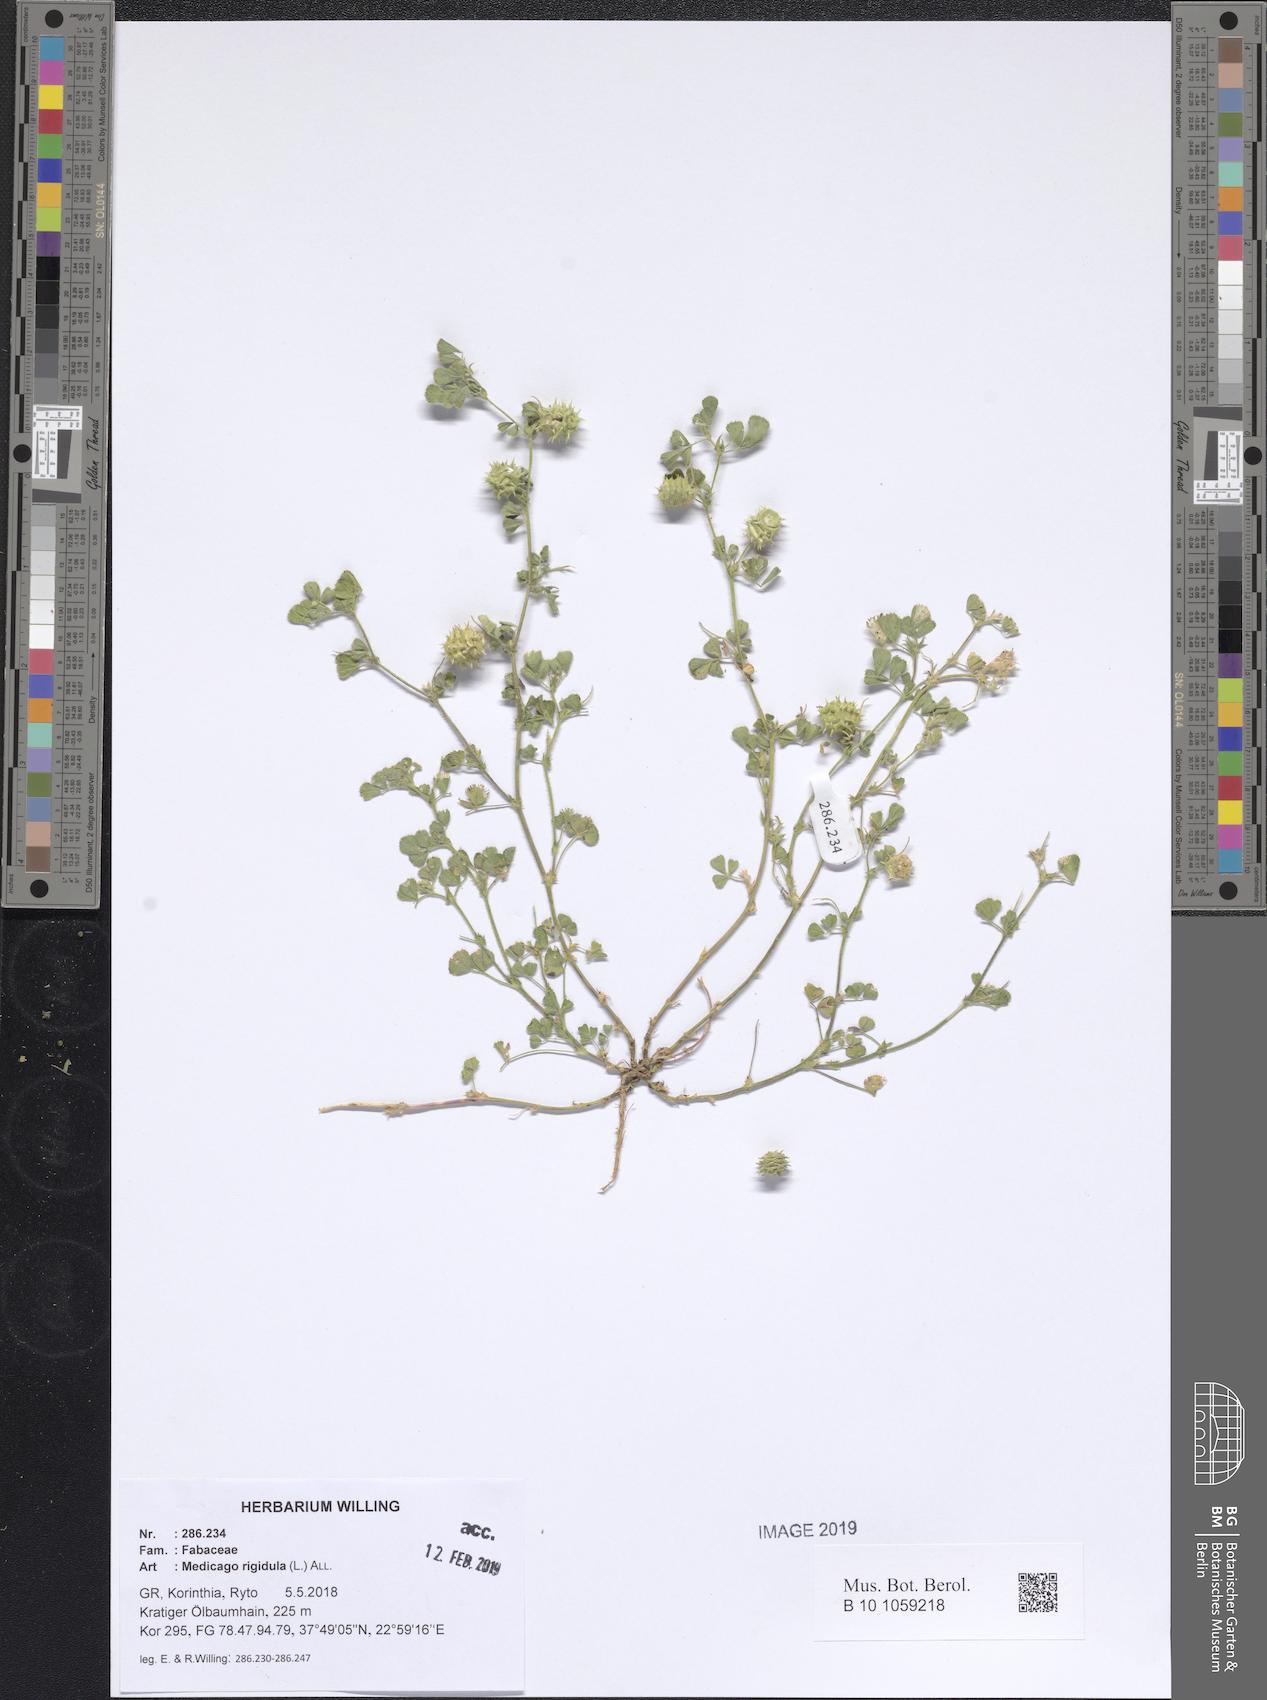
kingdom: Plantae
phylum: Tracheophyta
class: Magnoliopsida
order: Fabales
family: Fabaceae
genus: Medicago
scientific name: Medicago rigidula
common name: Tifton medic
